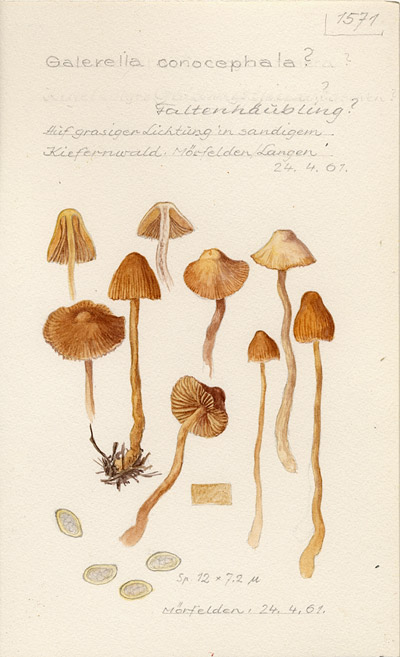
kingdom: Fungi
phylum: Basidiomycota
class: Agaricomycetes
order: Agaricales
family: Bolbitiaceae
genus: Galerella
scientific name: Galerella conocephala
